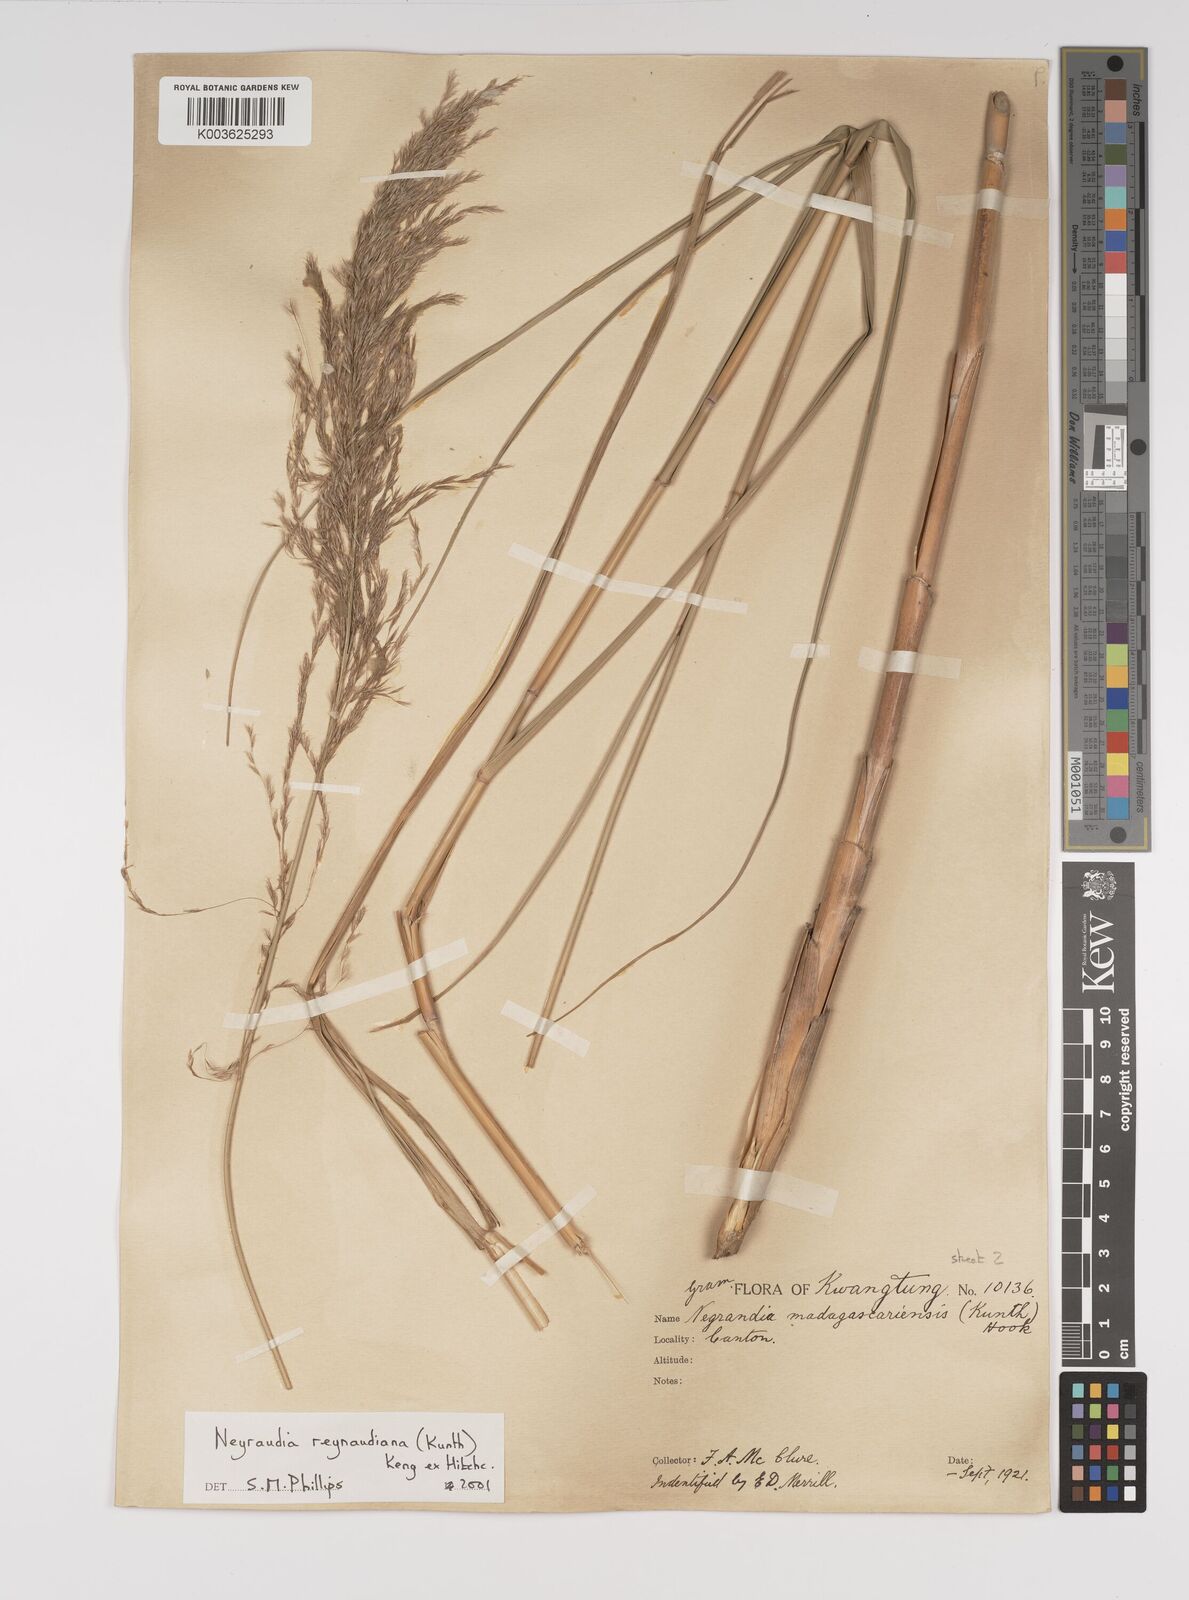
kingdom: Plantae
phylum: Tracheophyta
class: Liliopsida
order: Poales
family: Poaceae
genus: Neyraudia
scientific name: Neyraudia reynaudiana
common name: Silkreed
